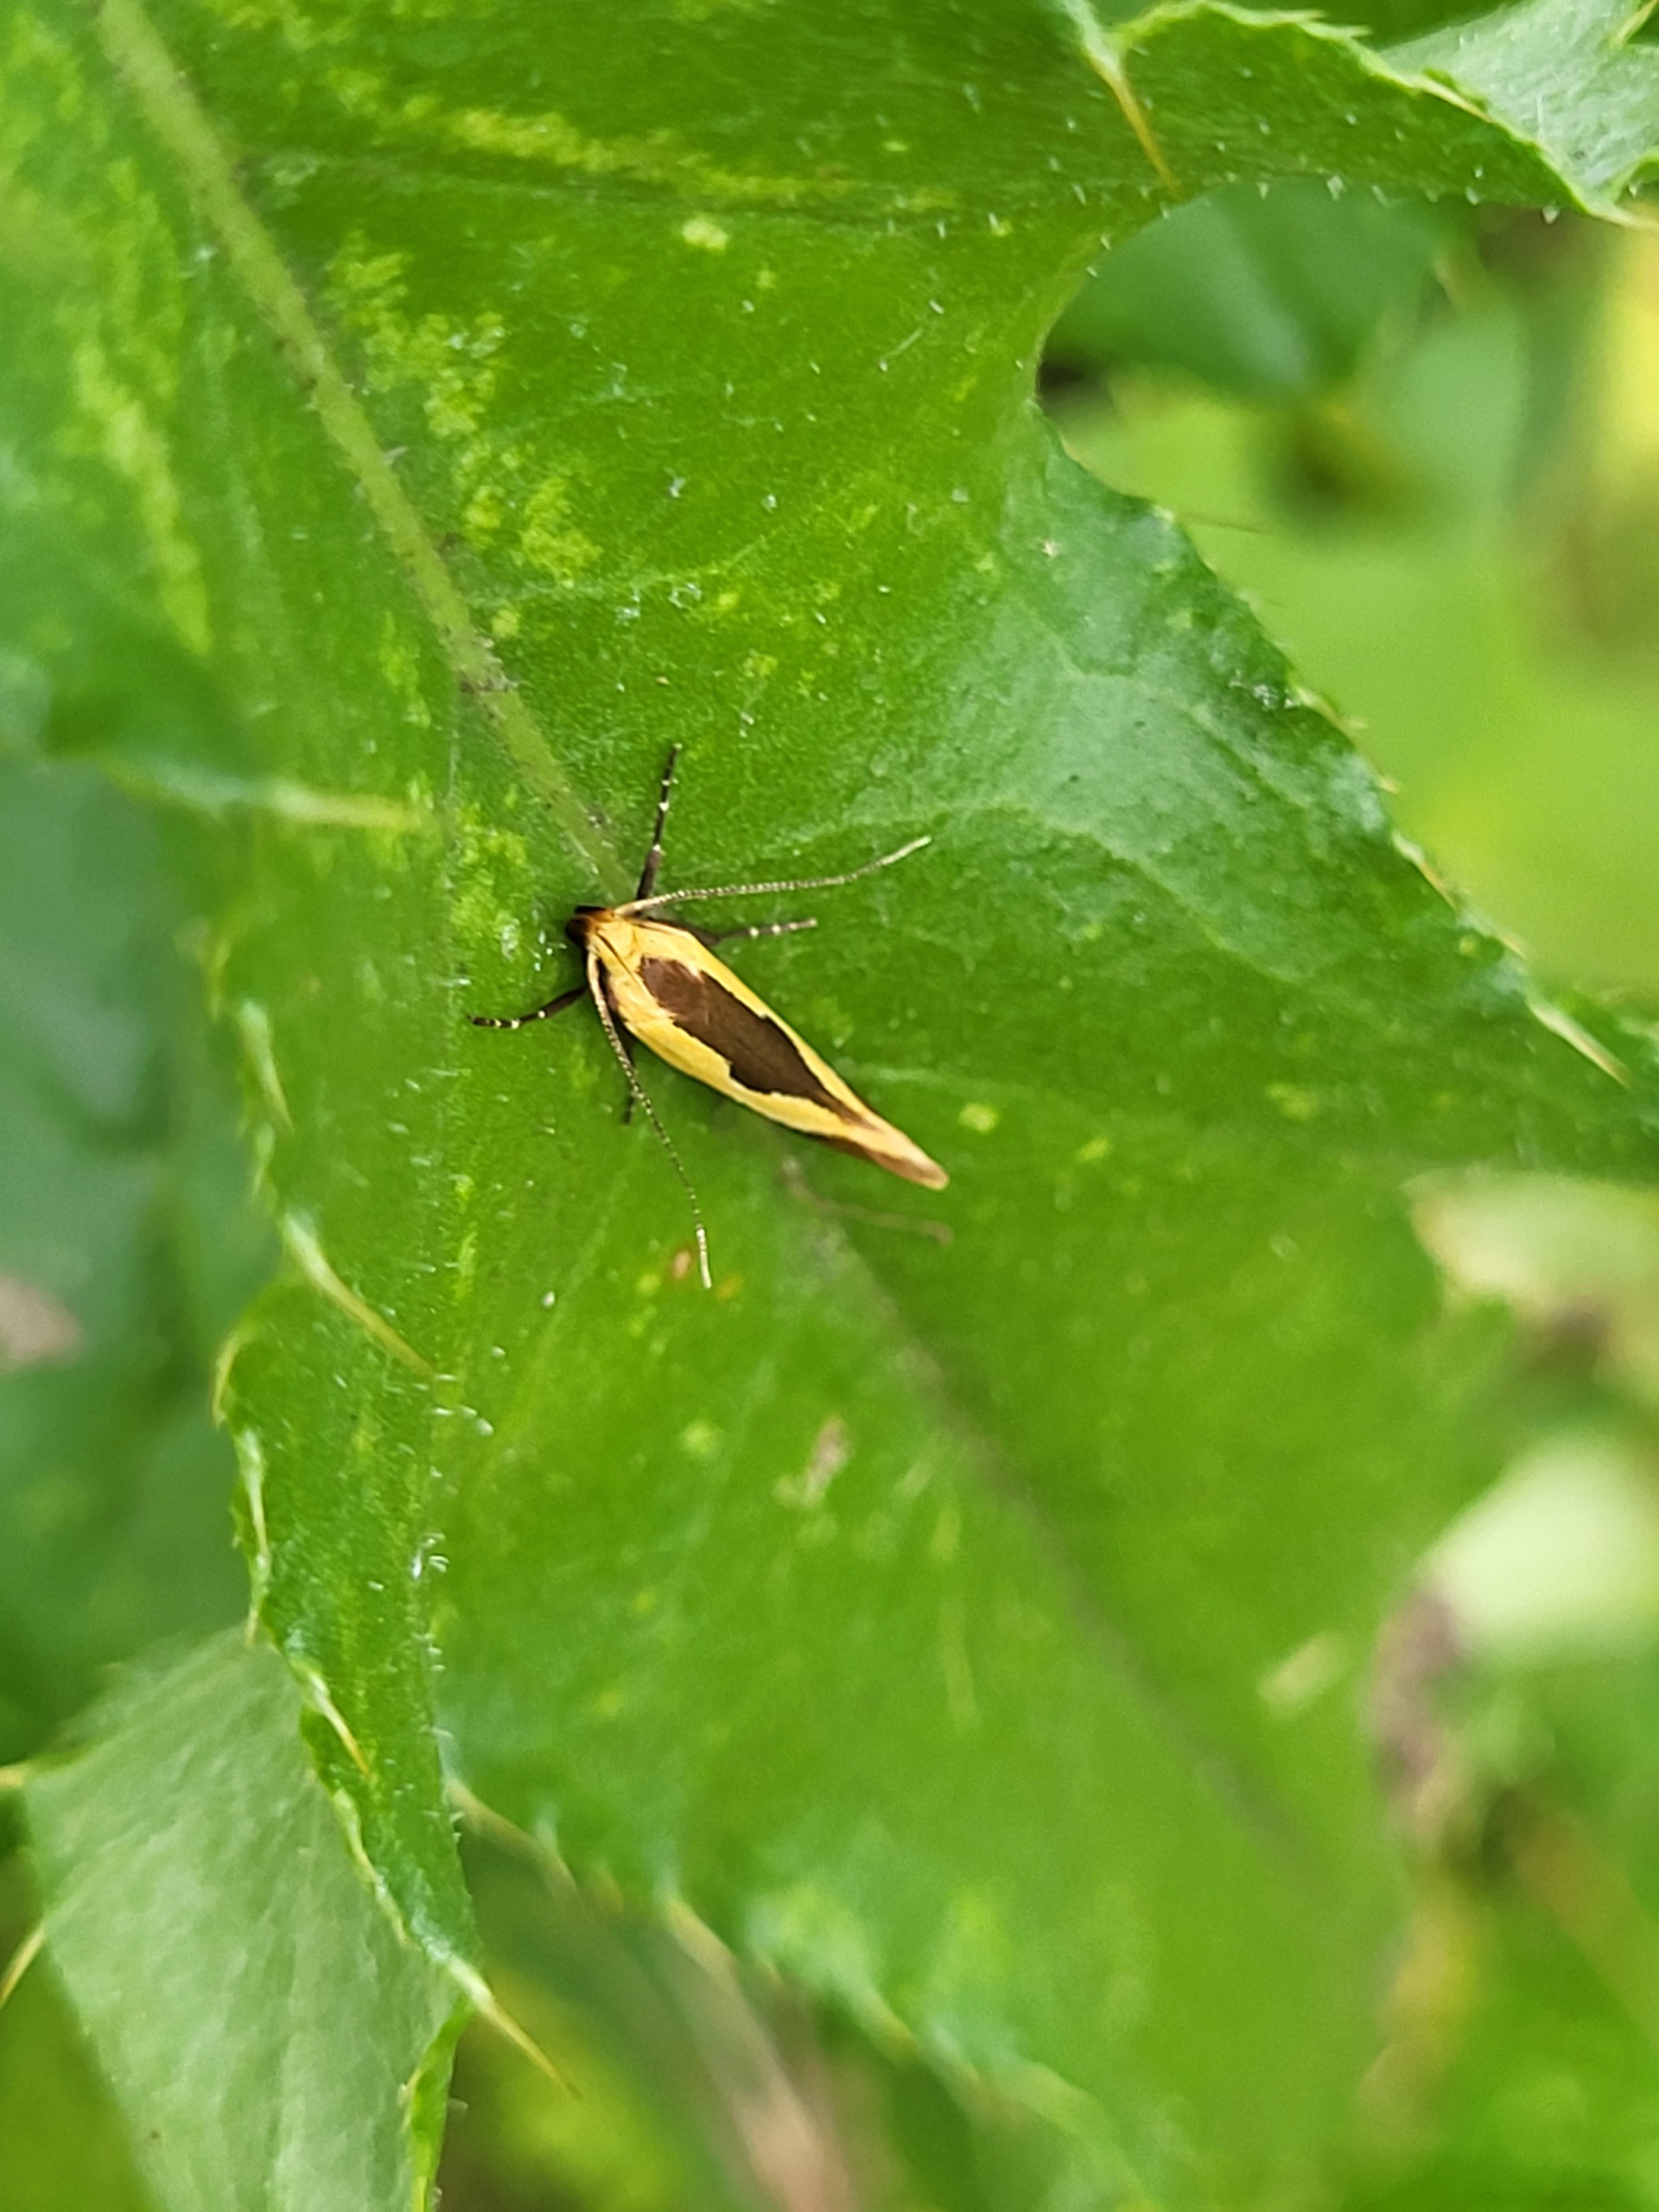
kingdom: Animalia
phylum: Arthropoda
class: Insecta
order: Lepidoptera
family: Oecophoridae
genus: Harpella
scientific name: Harpella forficella
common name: Kæmpeprydvinge
